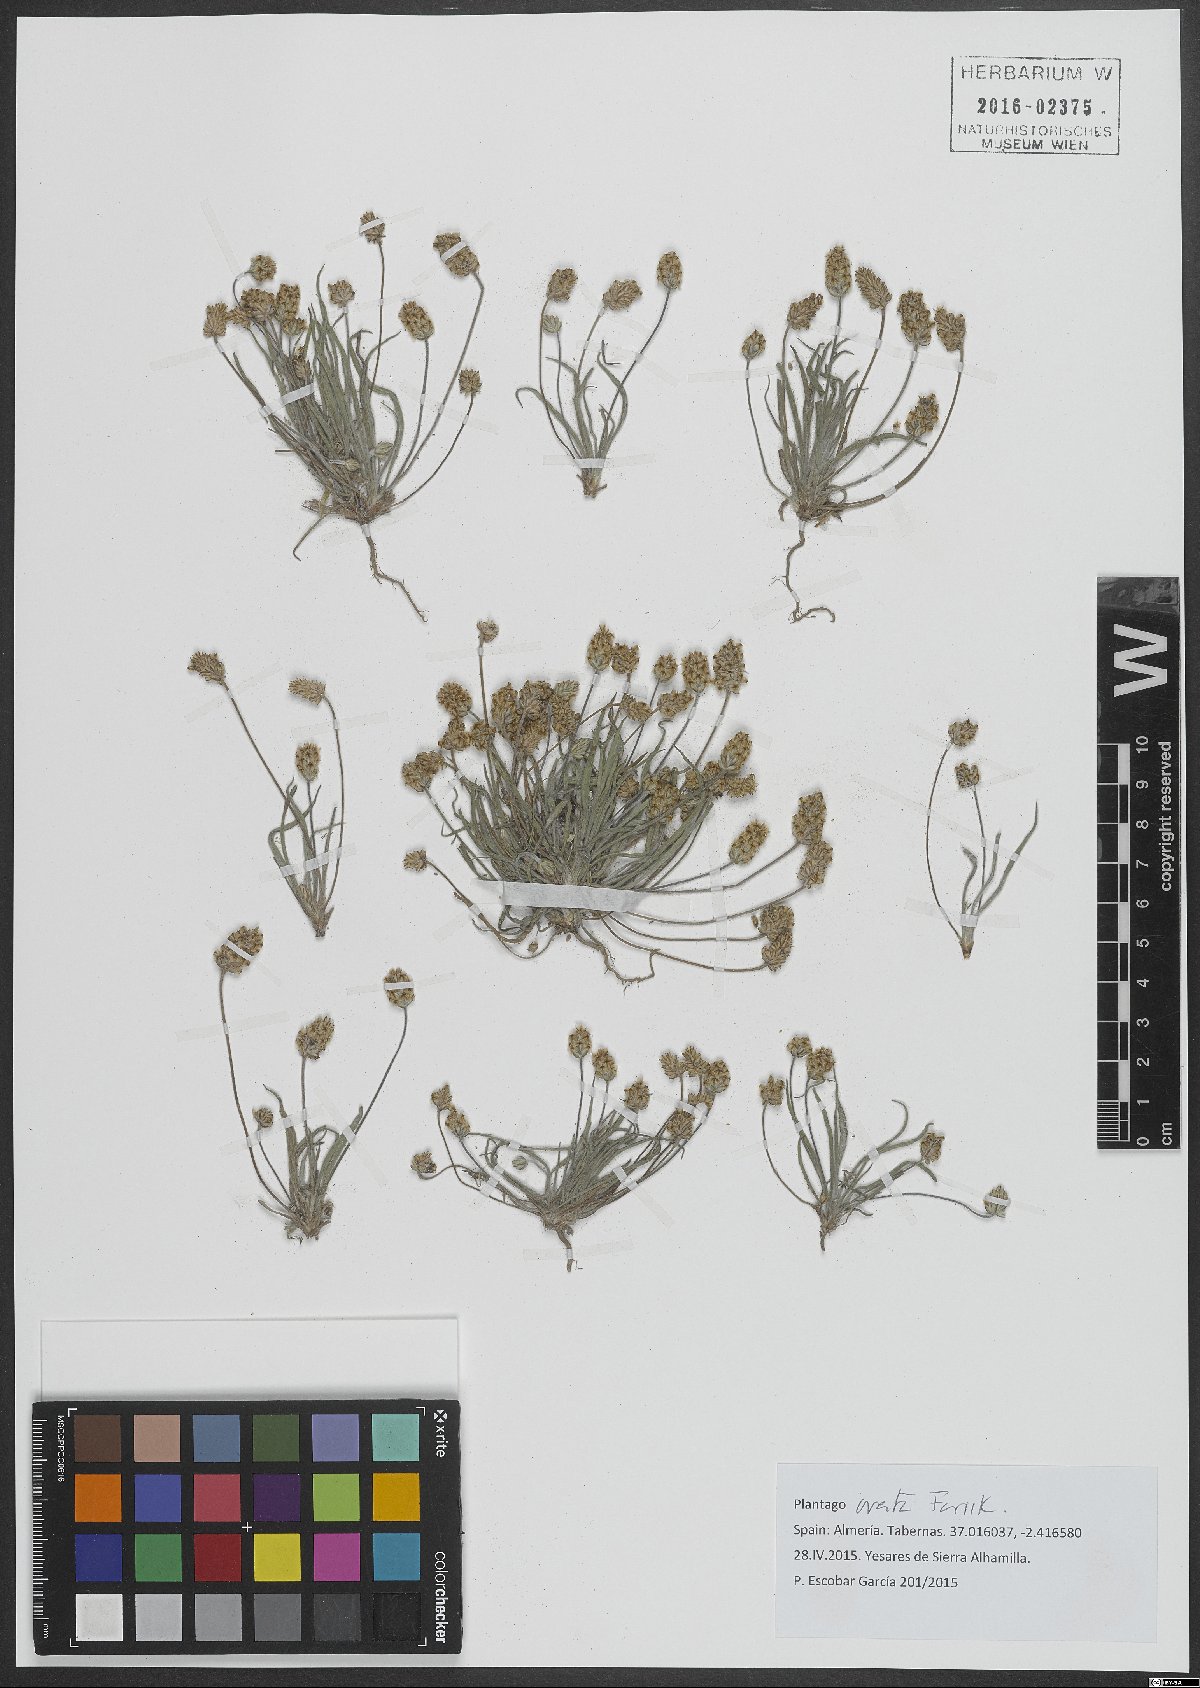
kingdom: Plantae
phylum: Tracheophyta
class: Magnoliopsida
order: Lamiales
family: Plantaginaceae
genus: Plantago
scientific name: Plantago ovata
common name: Blond plantain
